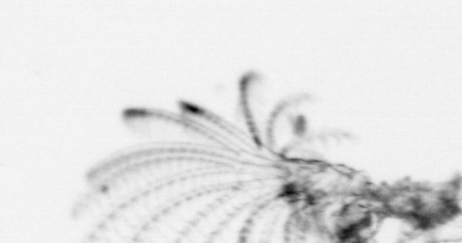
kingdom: Animalia
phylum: Arthropoda
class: Maxillopoda
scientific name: Maxillopoda
